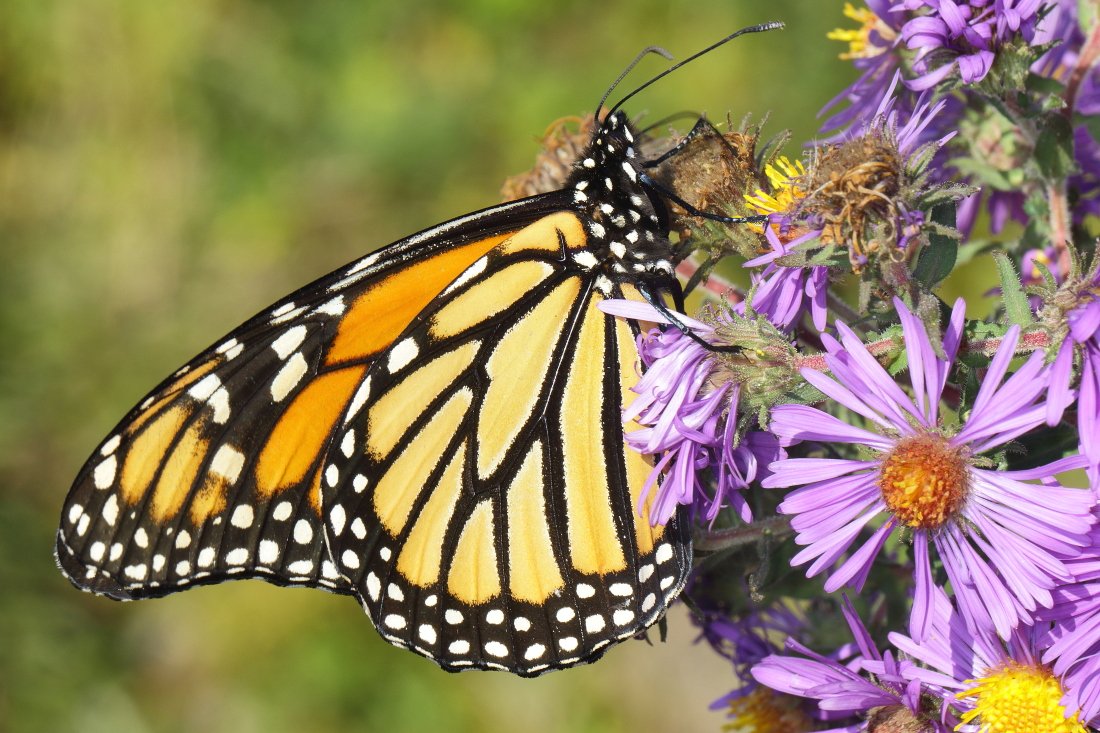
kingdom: Animalia
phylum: Arthropoda
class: Insecta
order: Lepidoptera
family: Nymphalidae
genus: Danaus
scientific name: Danaus plexippus
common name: Monarch
